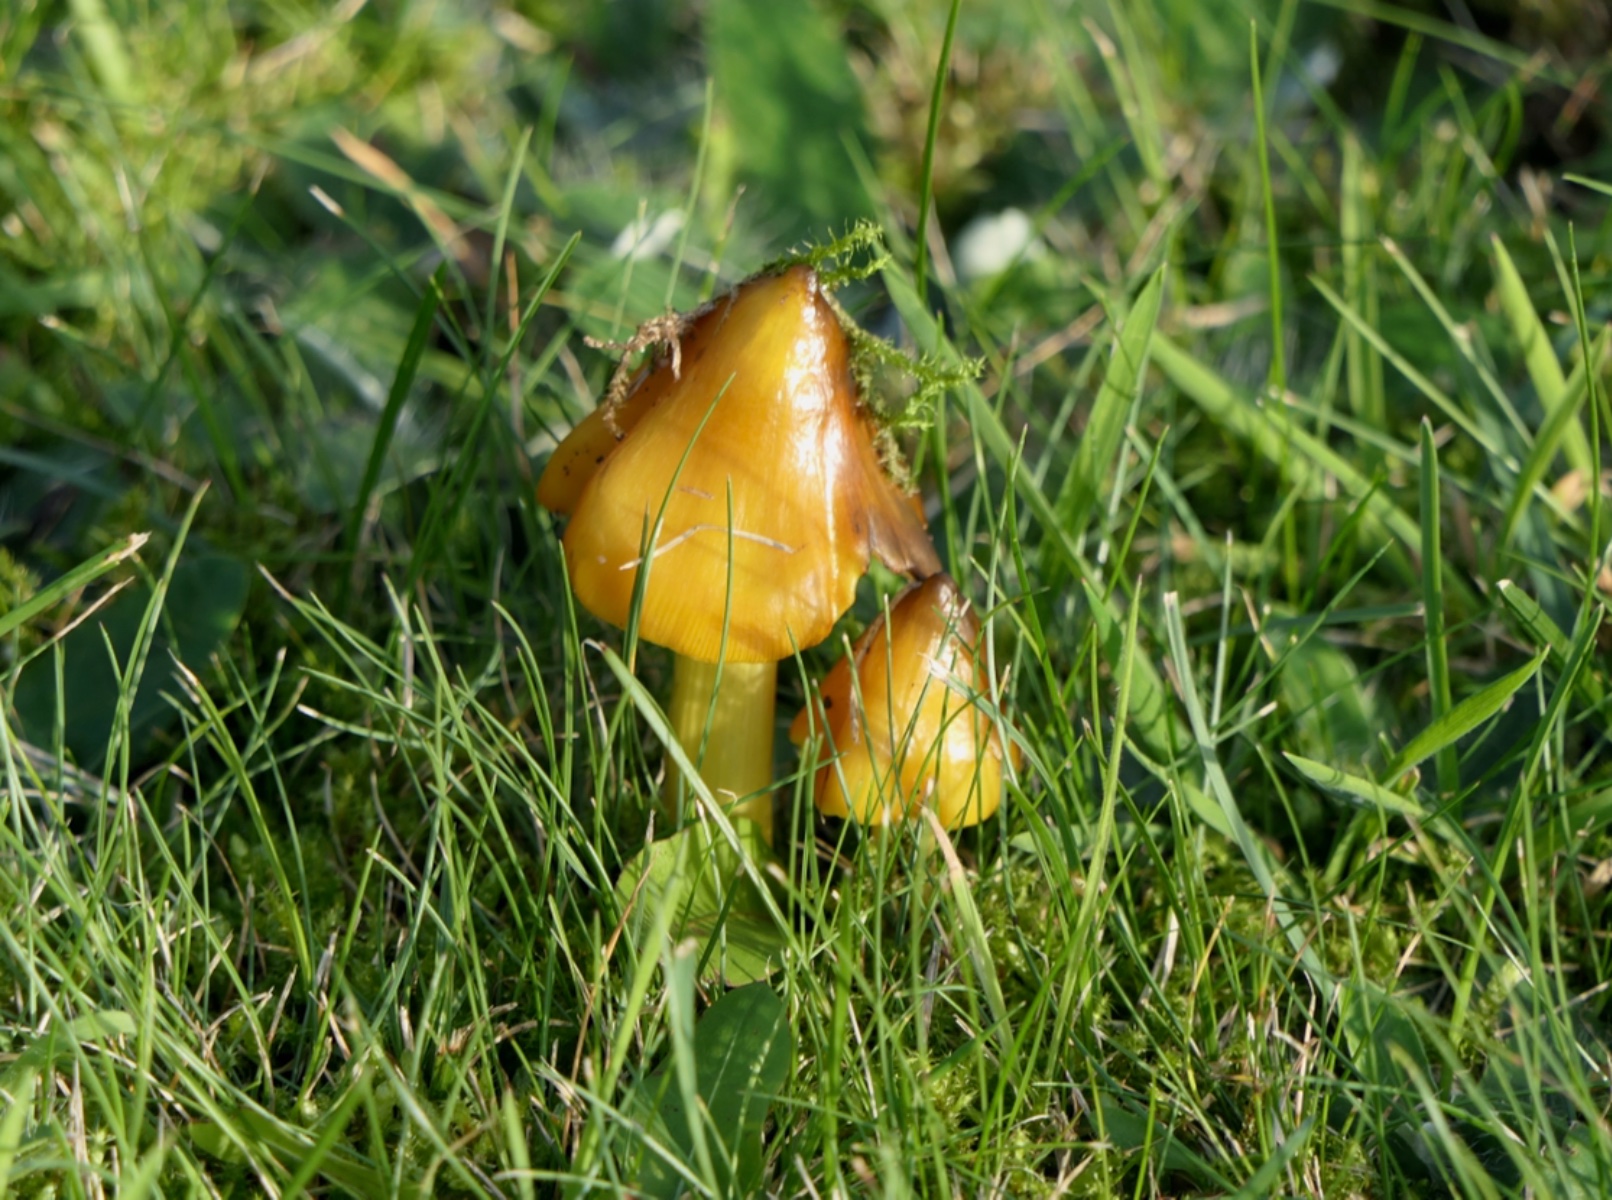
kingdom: Fungi
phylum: Basidiomycota
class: Agaricomycetes
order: Agaricales
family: Hygrophoraceae
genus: Hygrocybe
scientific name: Hygrocybe conica
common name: kegle-vokshat
